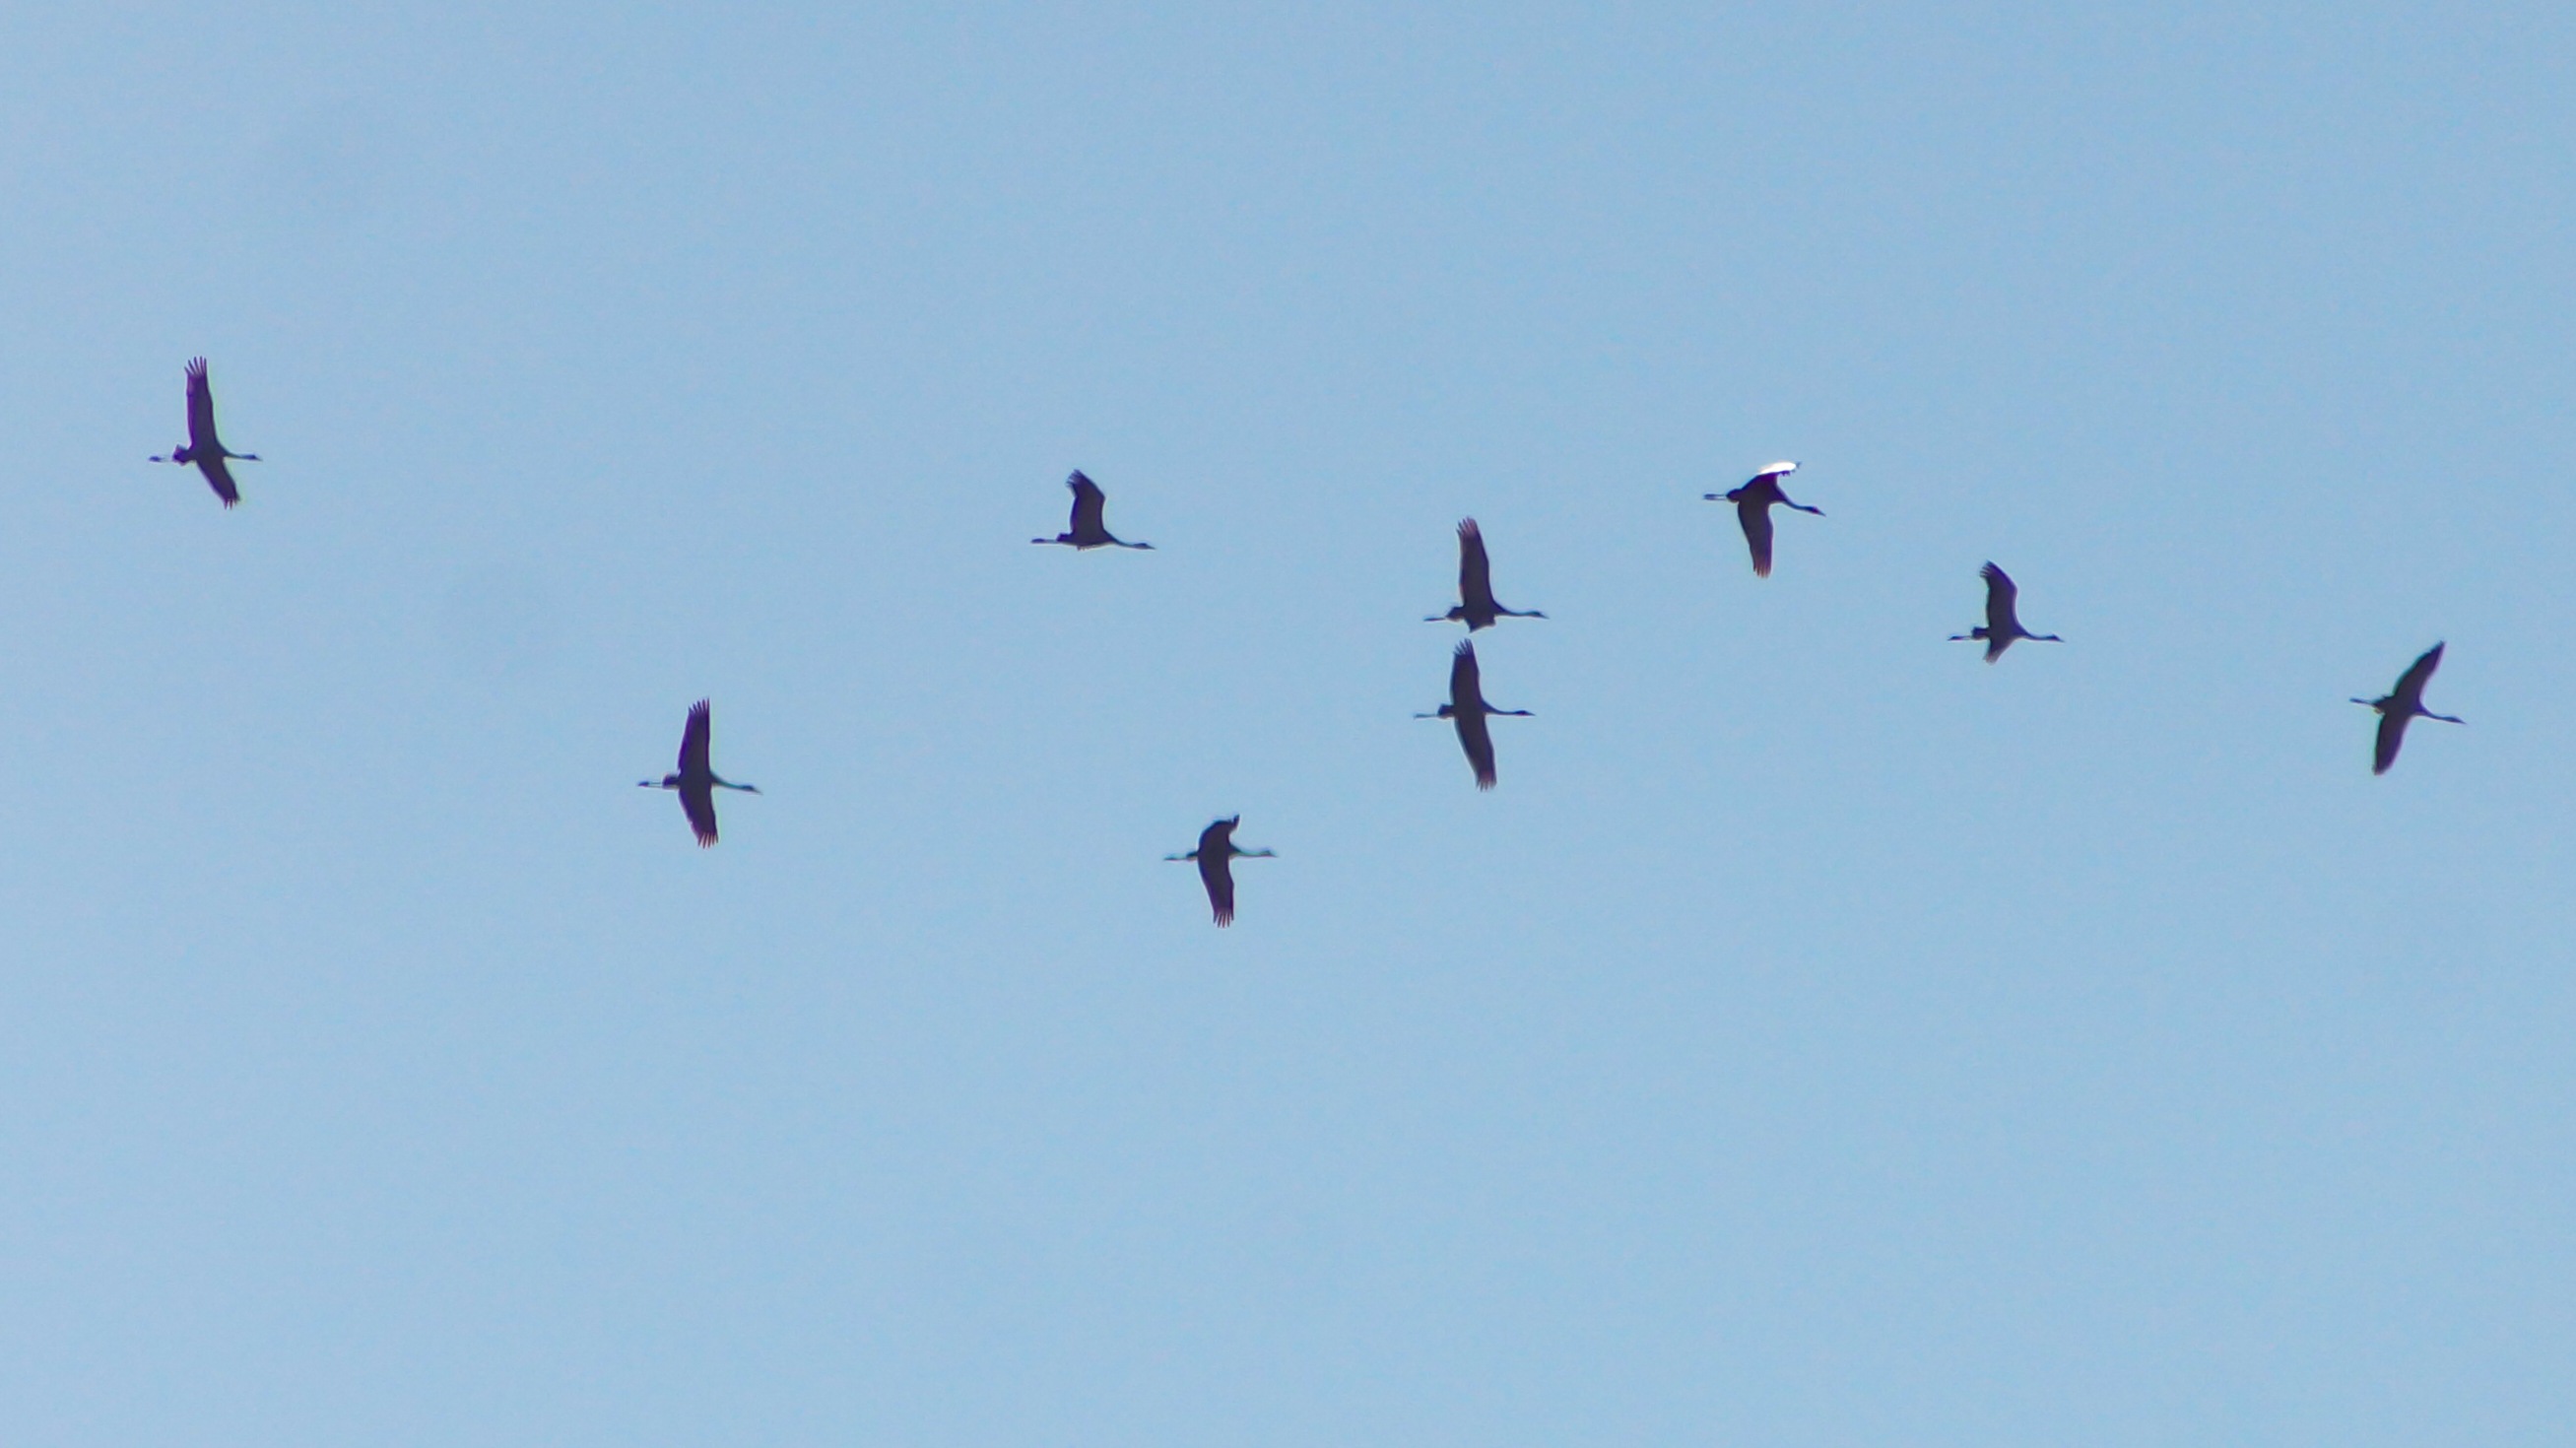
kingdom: Animalia
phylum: Chordata
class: Aves
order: Gruiformes
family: Gruidae
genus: Grus
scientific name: Grus grus
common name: Trane
